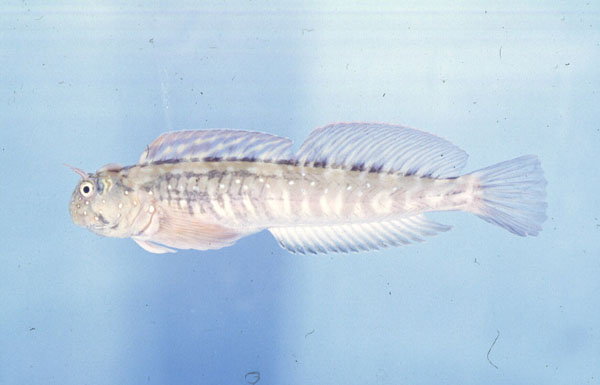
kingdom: Animalia
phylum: Chordata
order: Perciformes
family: Blenniidae
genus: Istiblennius
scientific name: Istiblennius unicolor
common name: Pallid rockskipper
